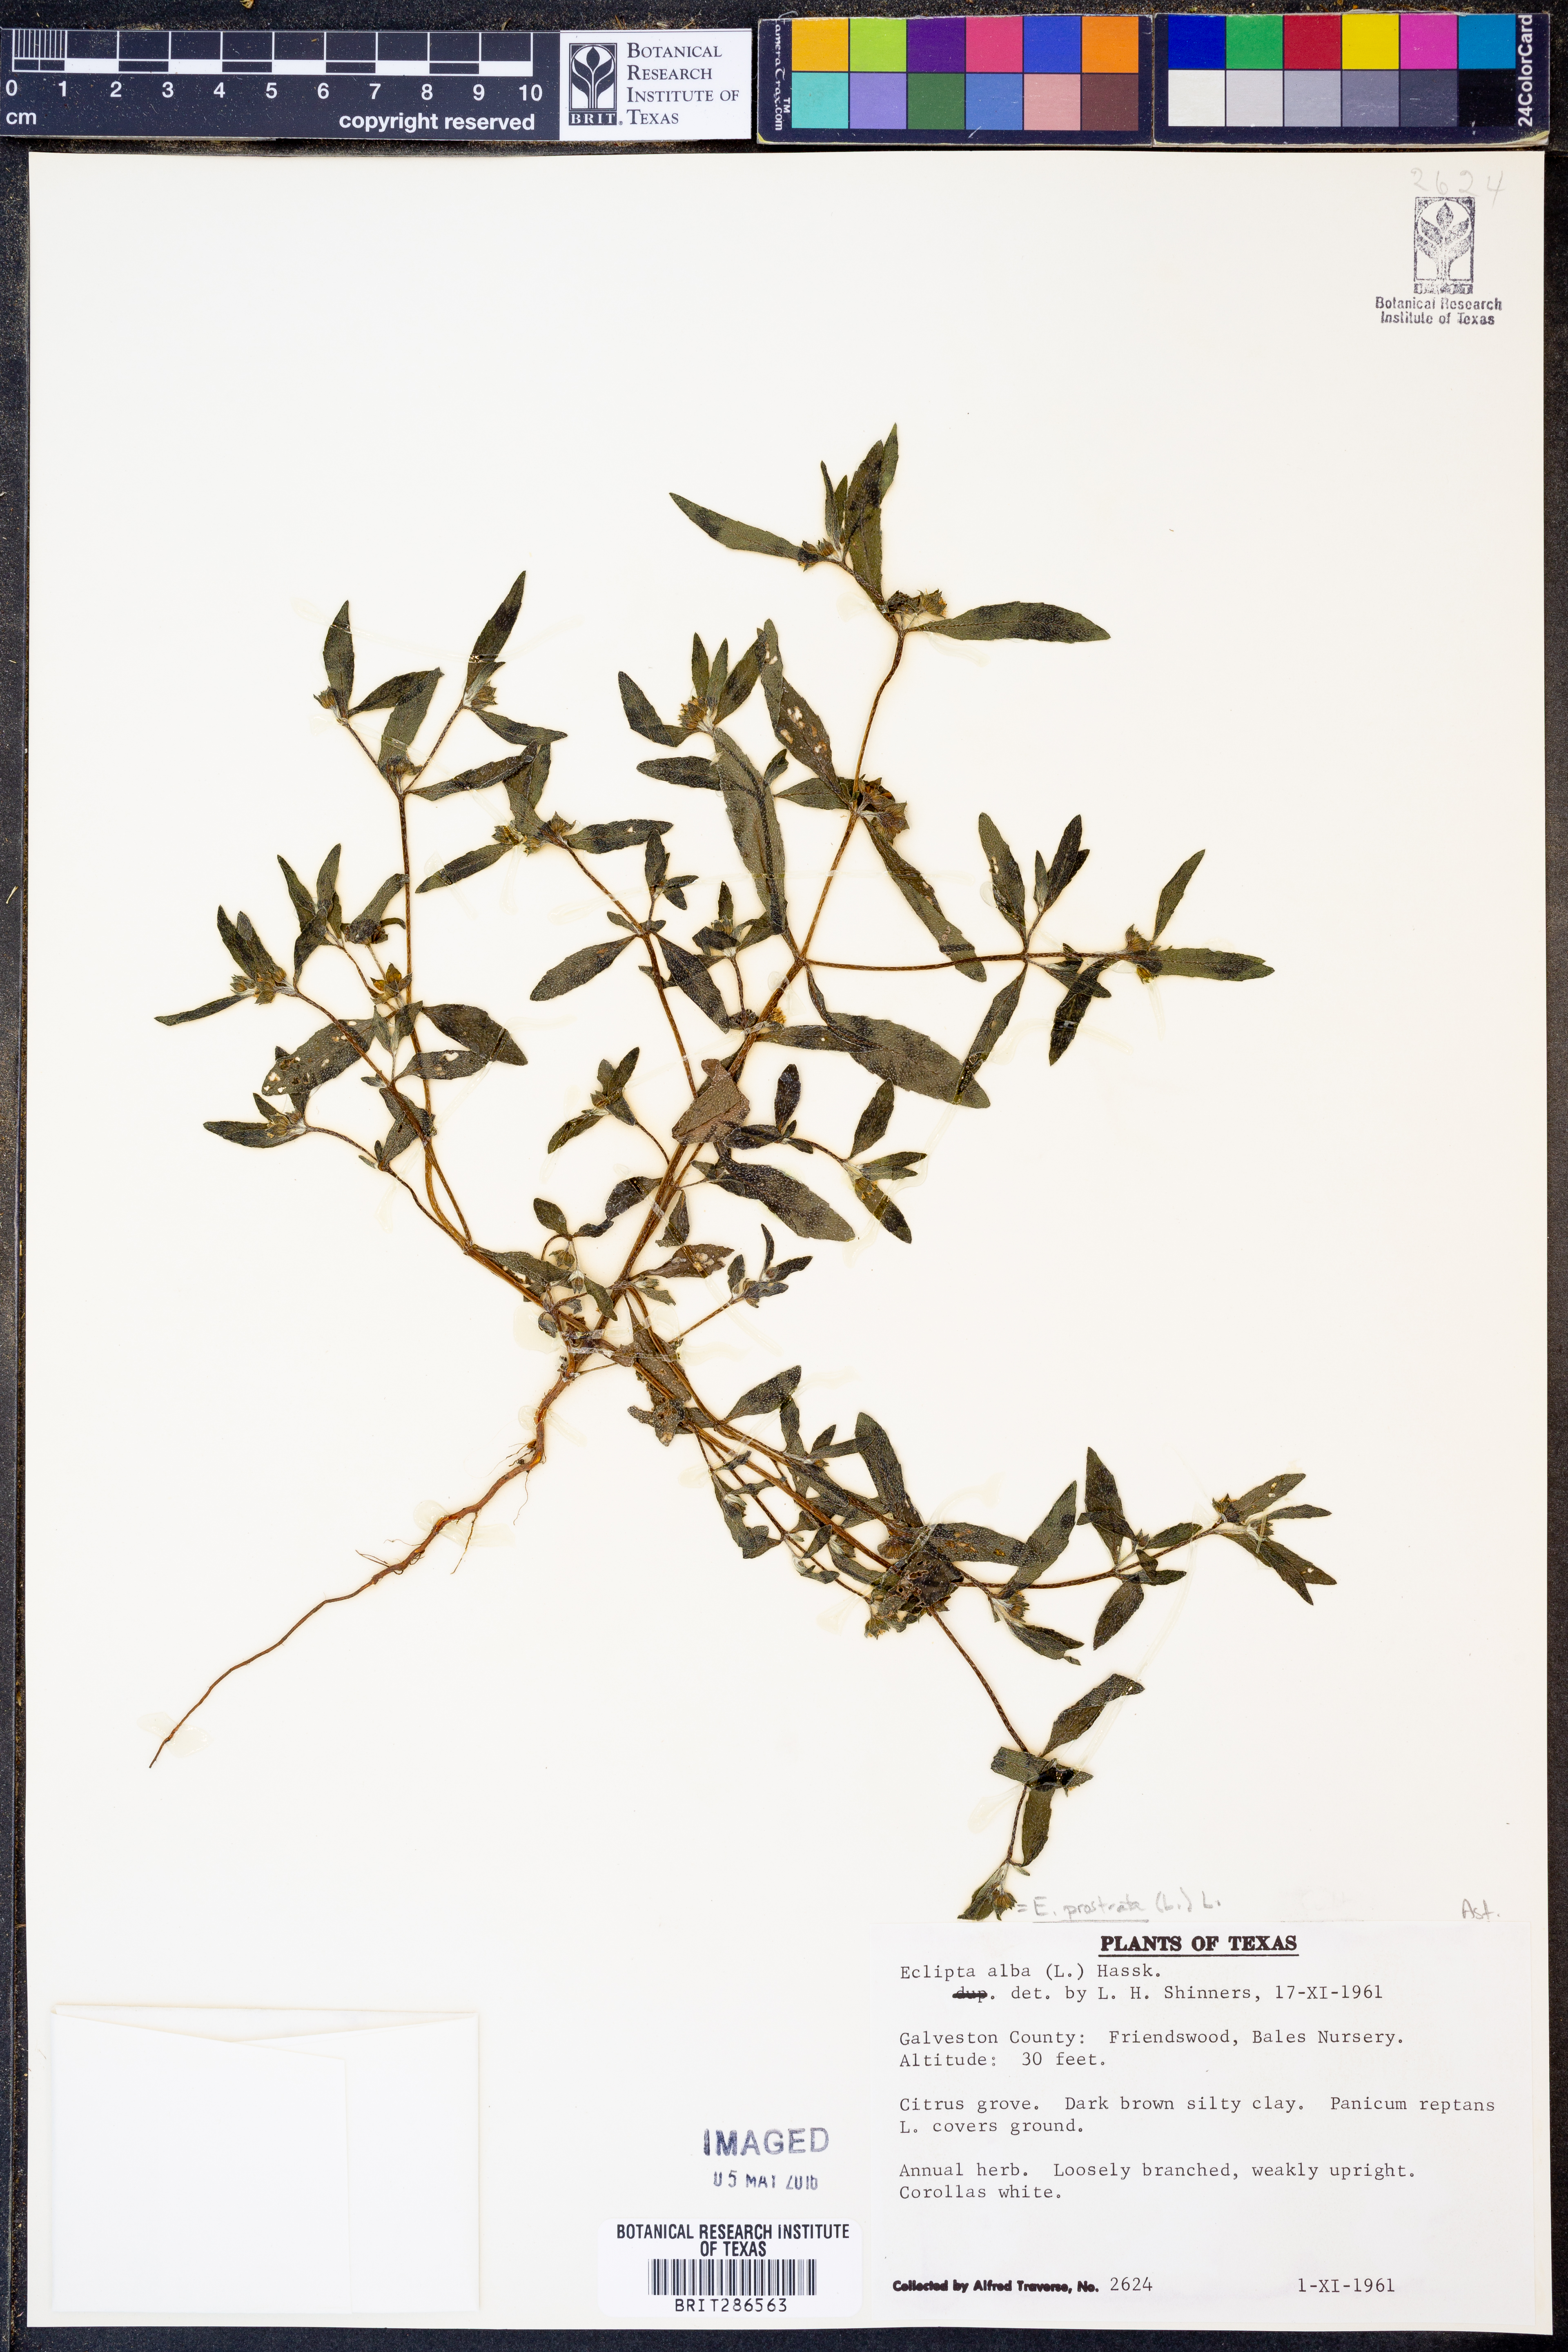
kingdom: Plantae
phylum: Tracheophyta
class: Magnoliopsida
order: Asterales
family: Asteraceae
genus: Eclipta
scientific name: Eclipta alba
